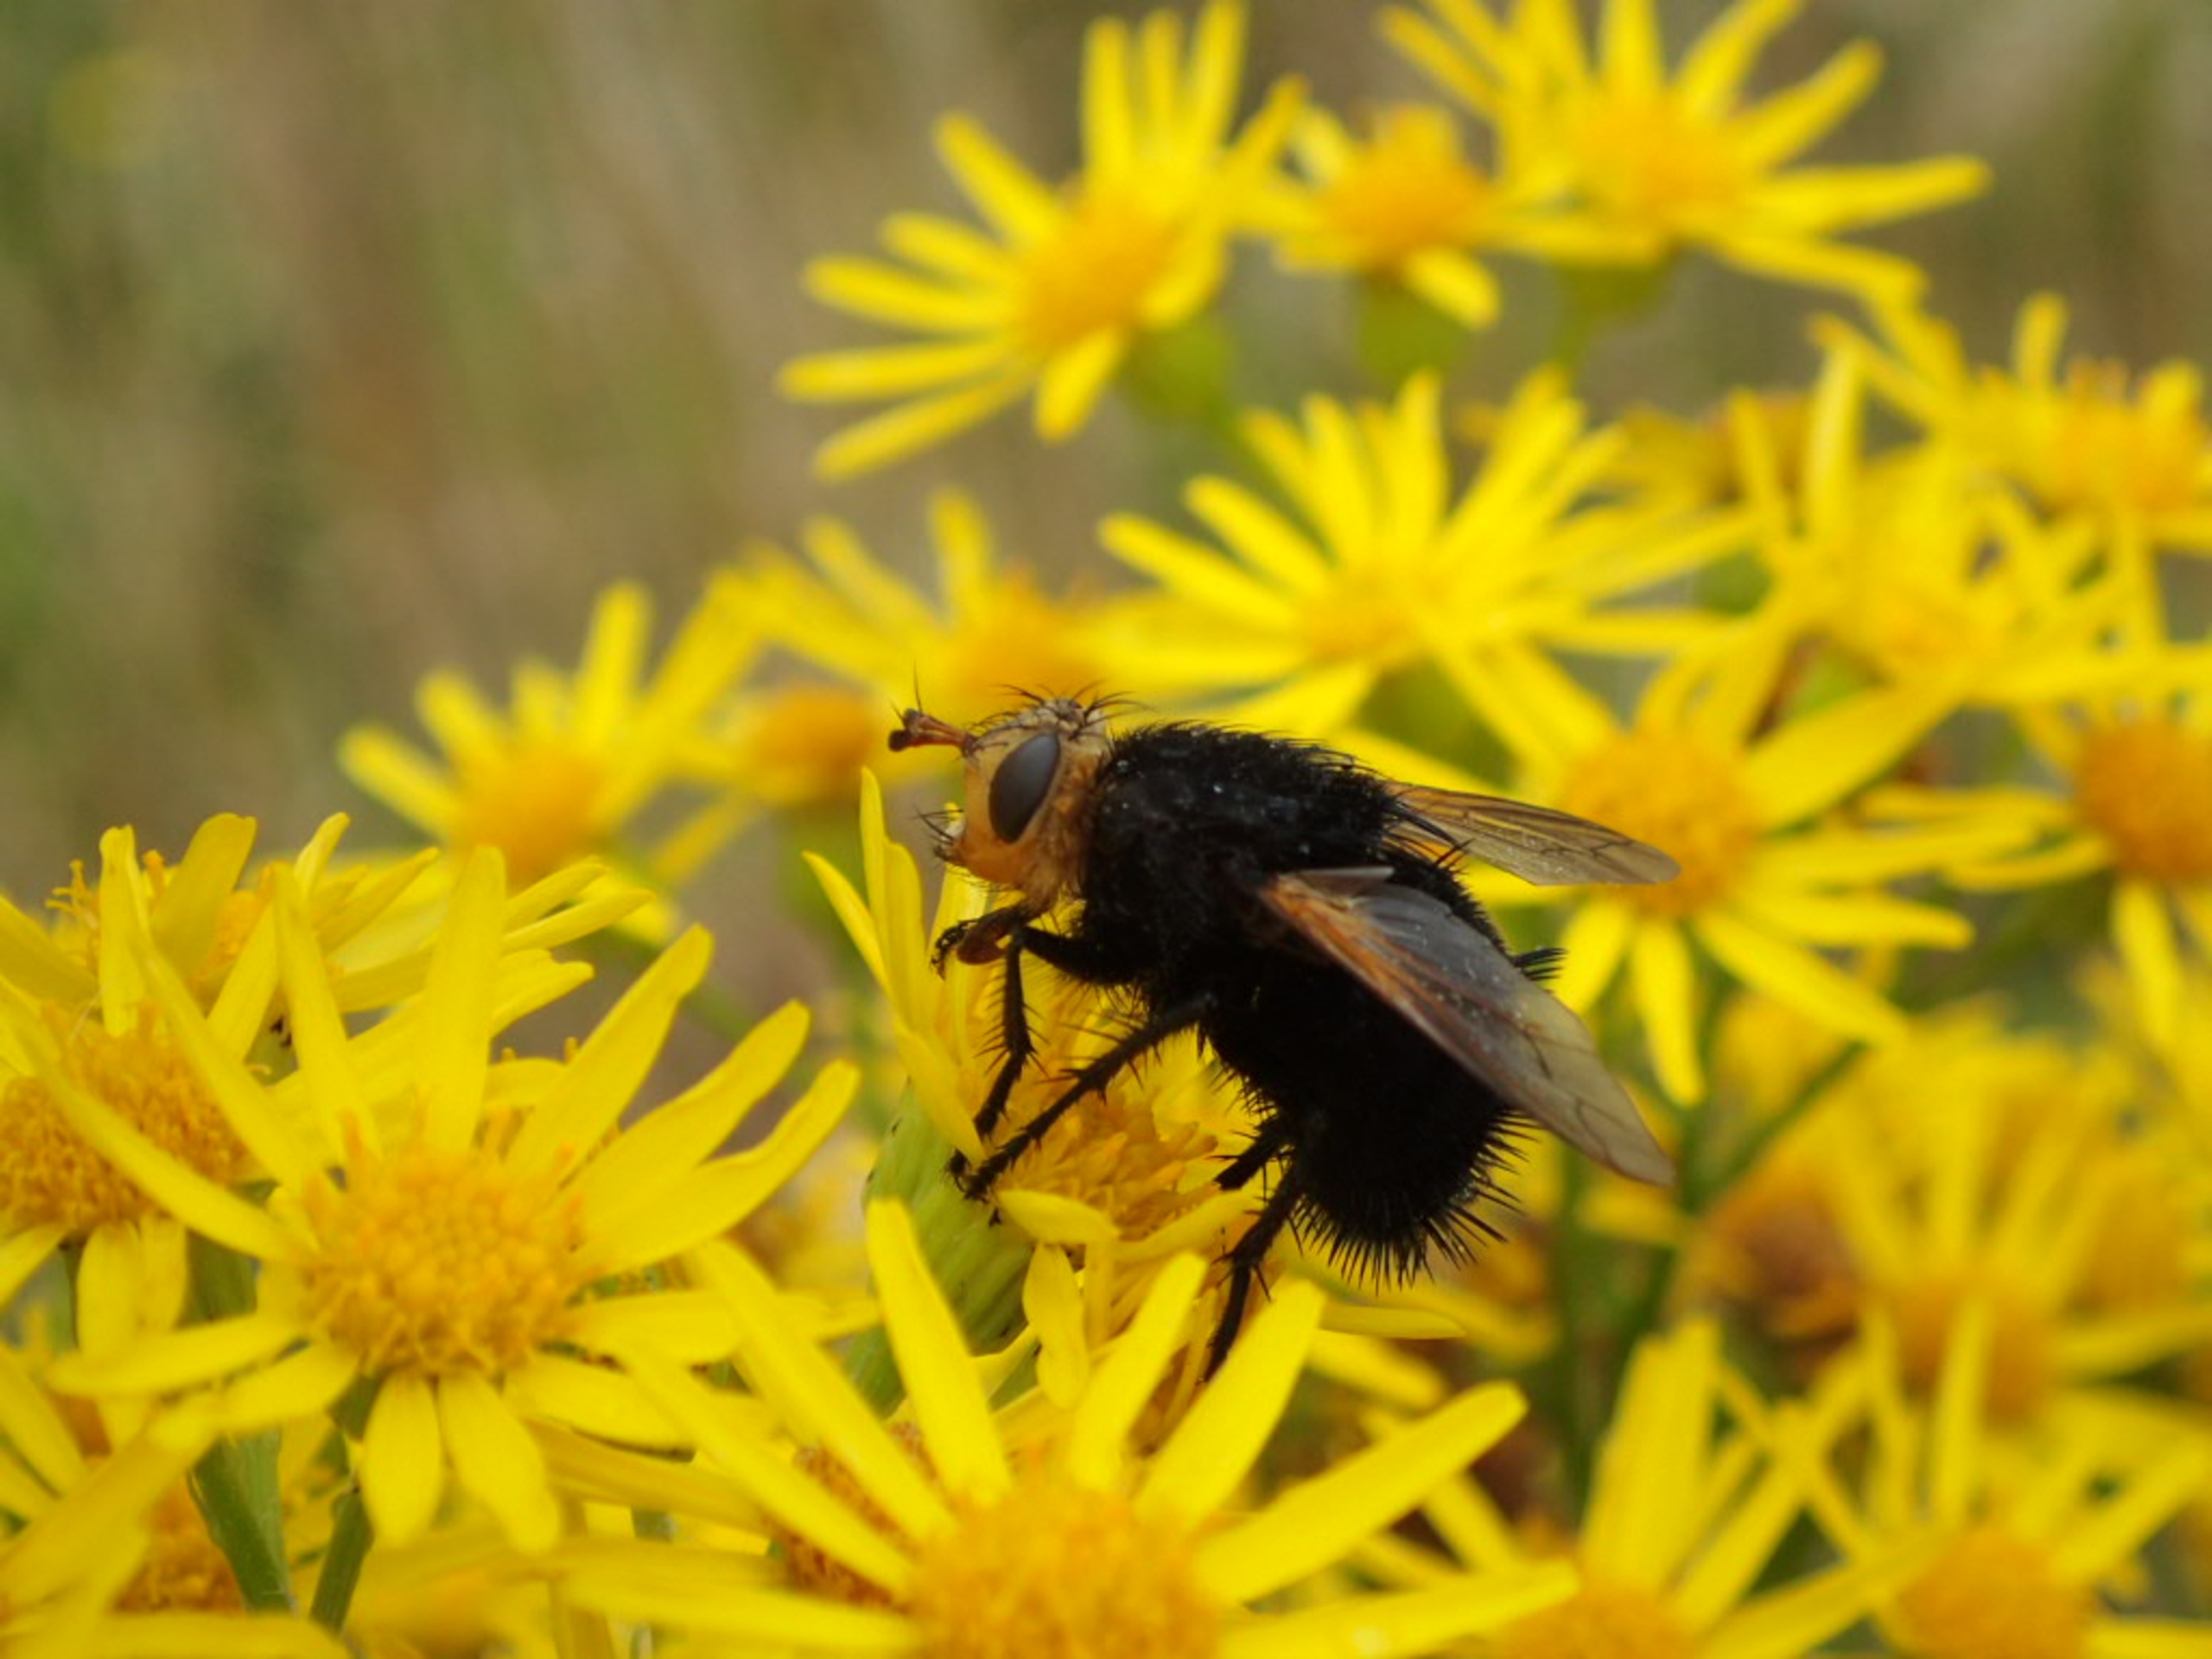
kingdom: Animalia
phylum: Arthropoda
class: Insecta
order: Diptera
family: Tachinidae
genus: Tachina
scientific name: Tachina grossa
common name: Kæmpefluen Harald
